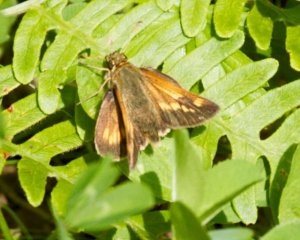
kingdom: Animalia
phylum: Arthropoda
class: Insecta
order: Lepidoptera
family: Hesperiidae
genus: Hesperia
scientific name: Hesperia sassacus
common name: Sassacus Skipper
